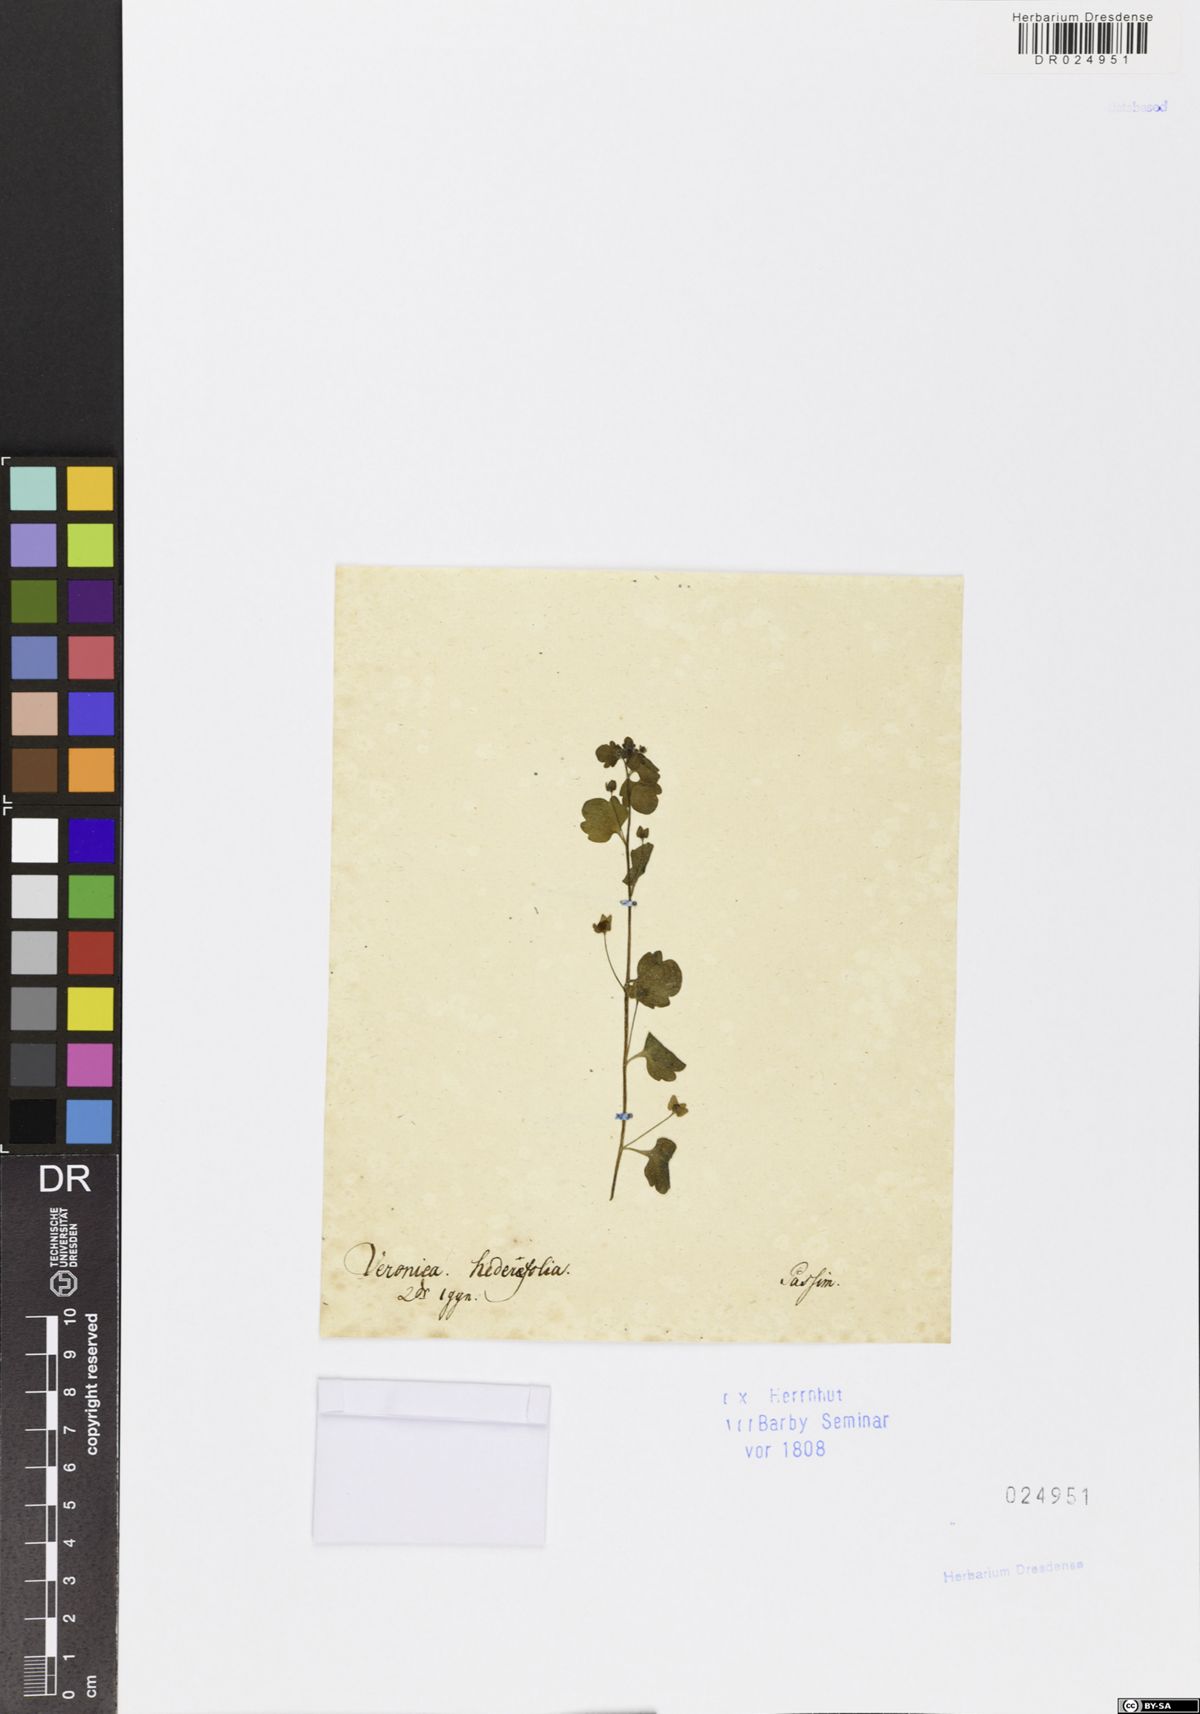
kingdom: Plantae
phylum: Tracheophyta
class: Magnoliopsida
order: Lamiales
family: Plantaginaceae
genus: Veronica
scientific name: Veronica sublobata
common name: False ivy-leaved speedwell
